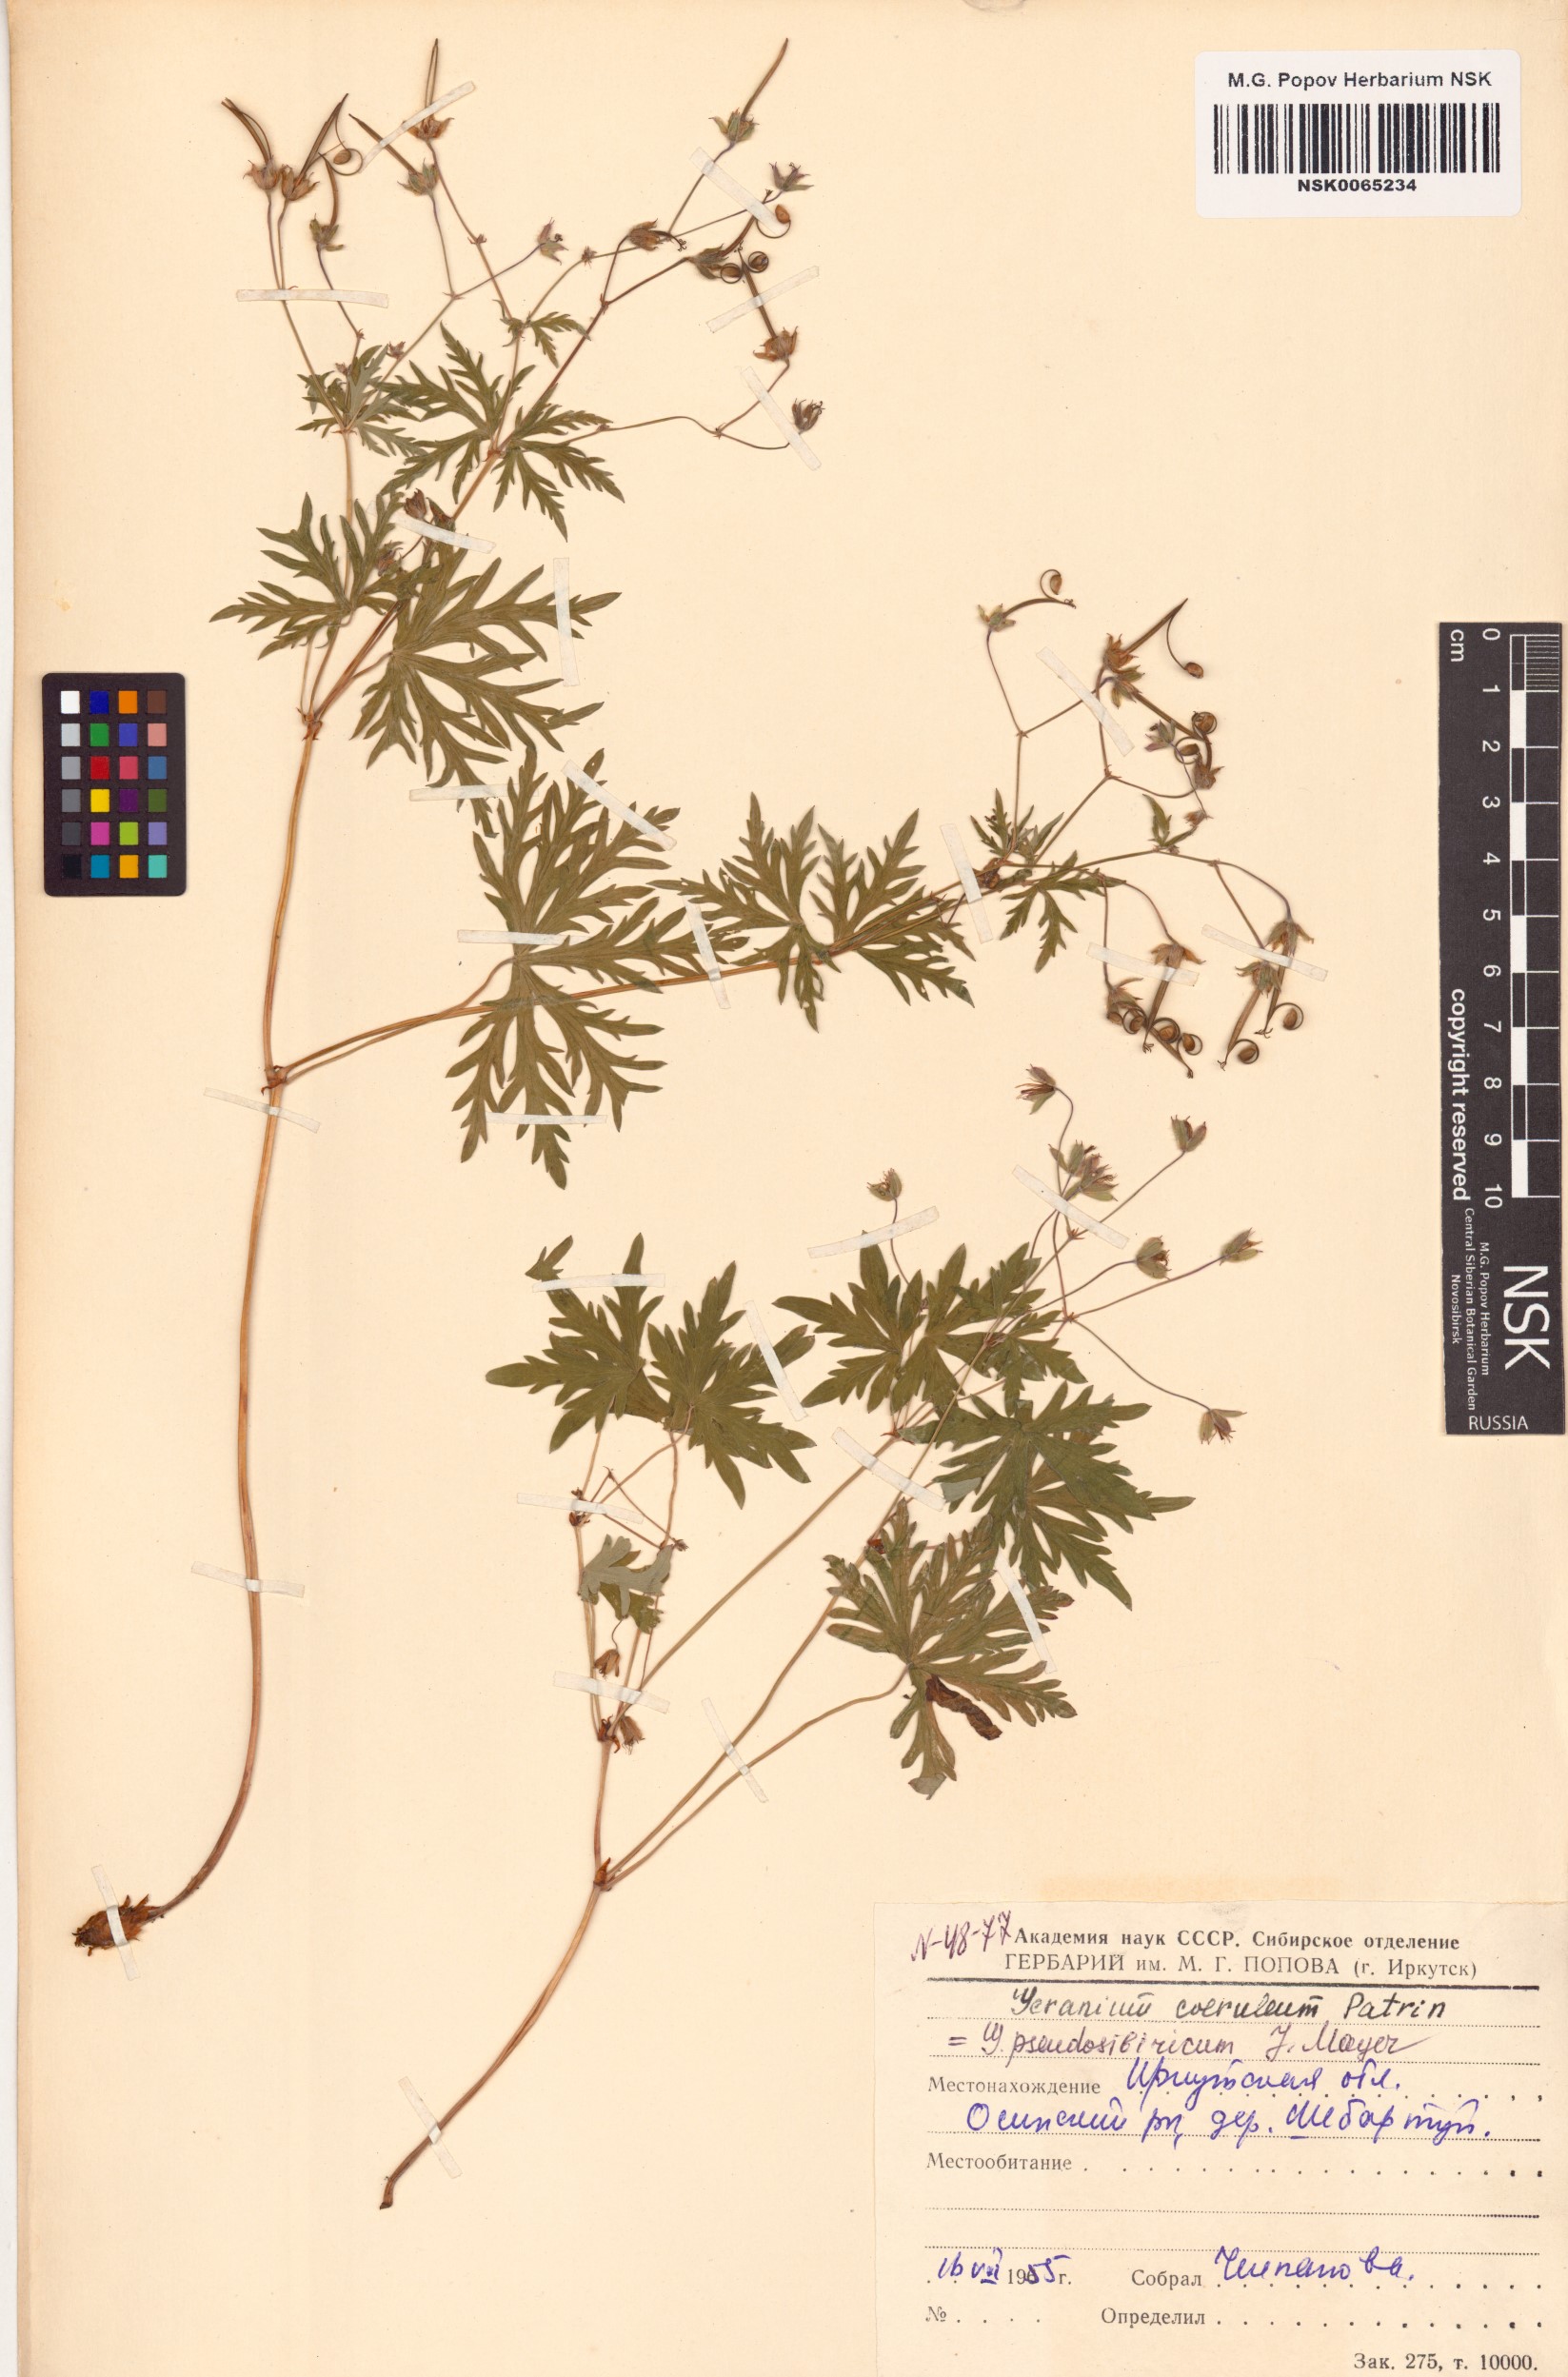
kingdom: Plantae
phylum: Tracheophyta
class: Magnoliopsida
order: Geraniales
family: Geraniaceae
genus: Geranium
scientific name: Geranium pseudosibiricum
